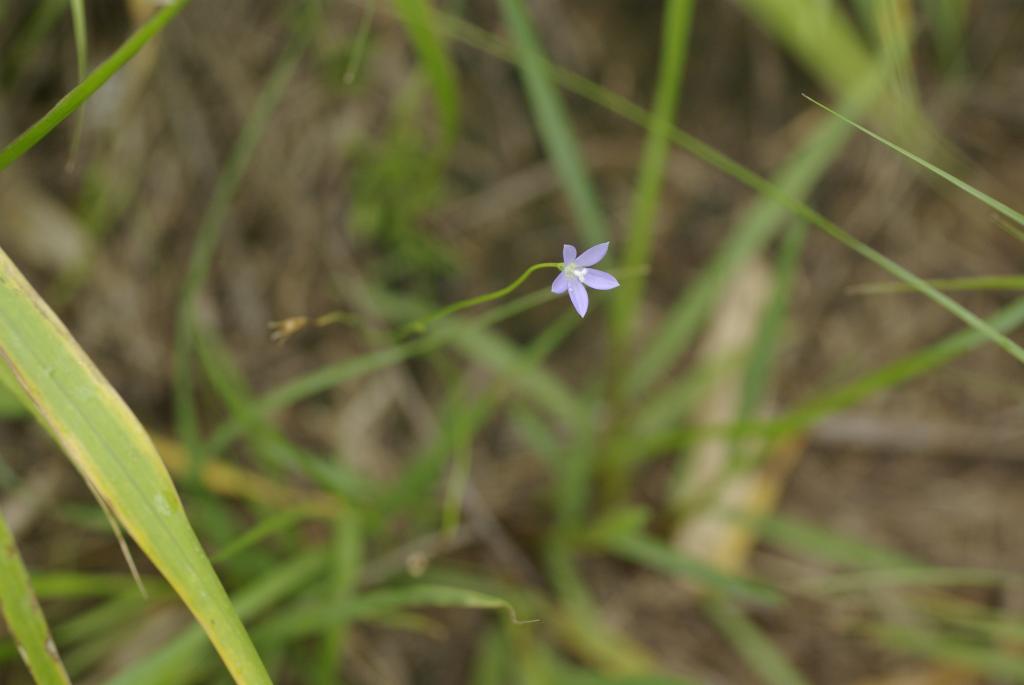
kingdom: Plantae
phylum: Tracheophyta
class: Magnoliopsida
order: Asterales
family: Campanulaceae
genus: Wahlenbergia
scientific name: Wahlenbergia marginata
